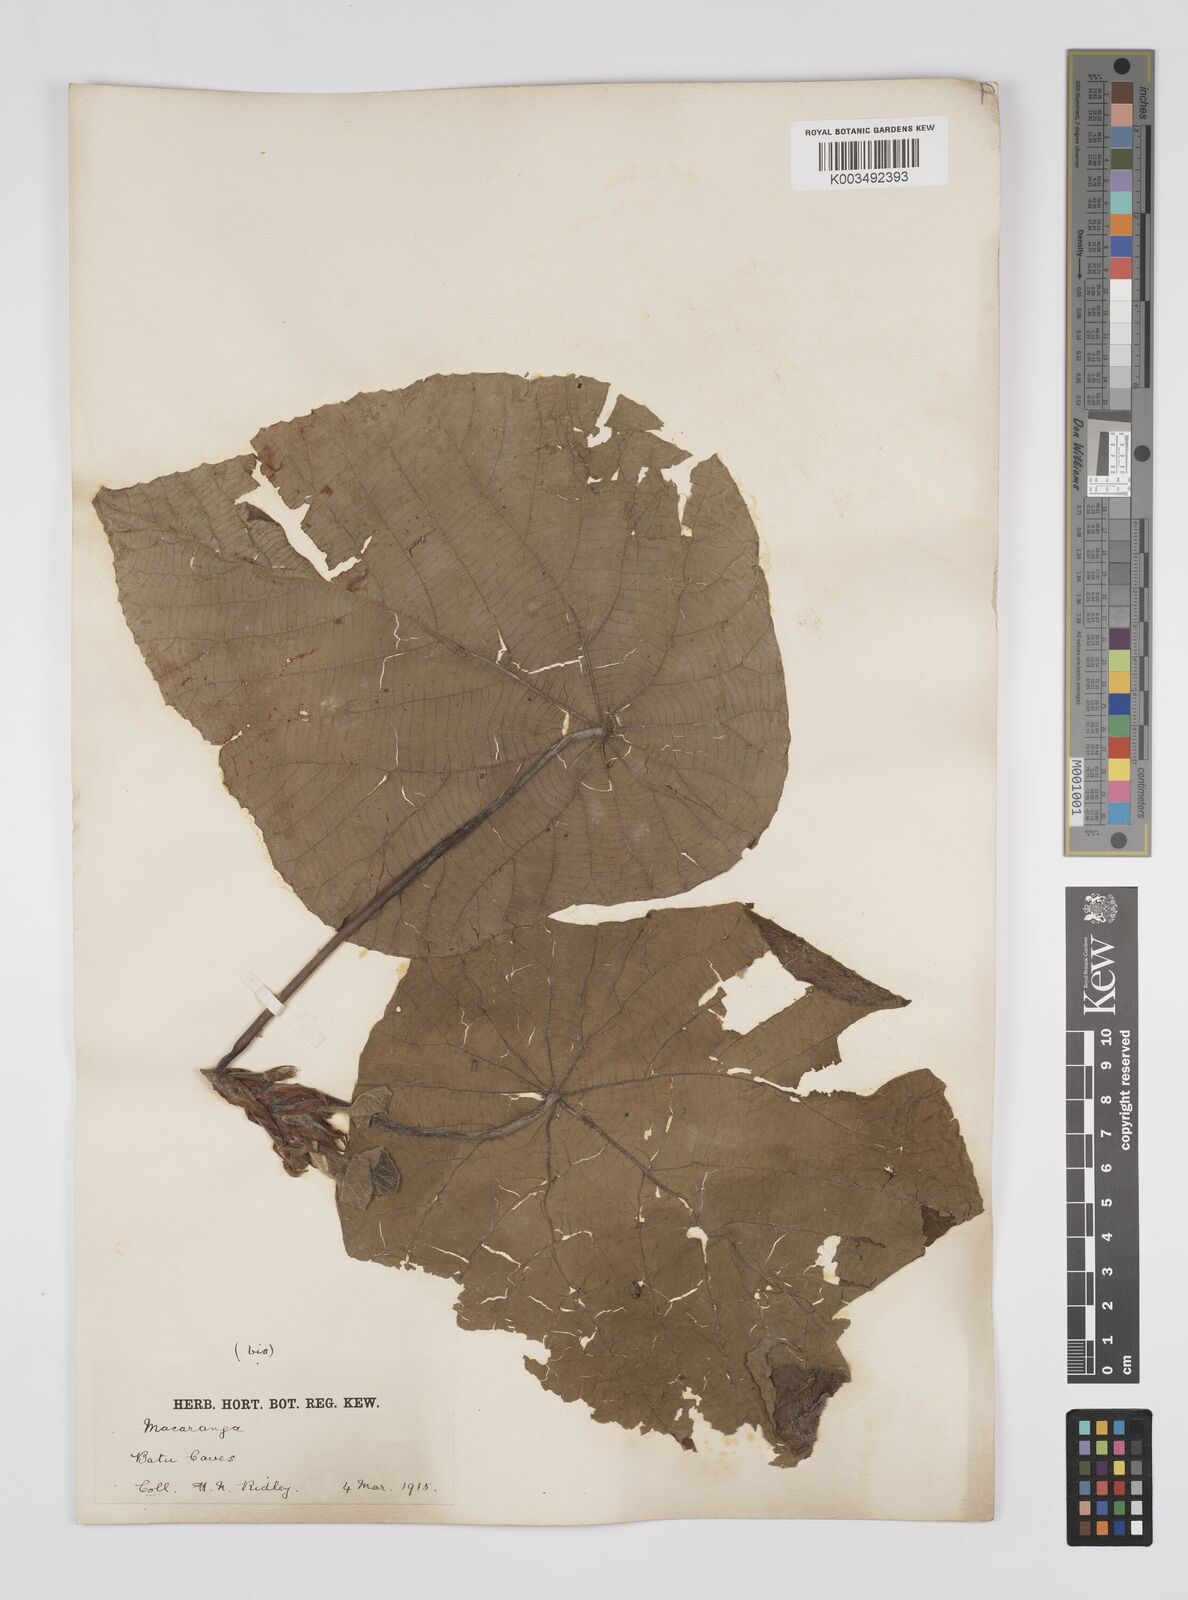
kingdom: Plantae
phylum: Tracheophyta
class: Magnoliopsida
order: Malpighiales
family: Euphorbiaceae
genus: Macaranga
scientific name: Macaranga tanarius
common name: Parasol leaf tree
